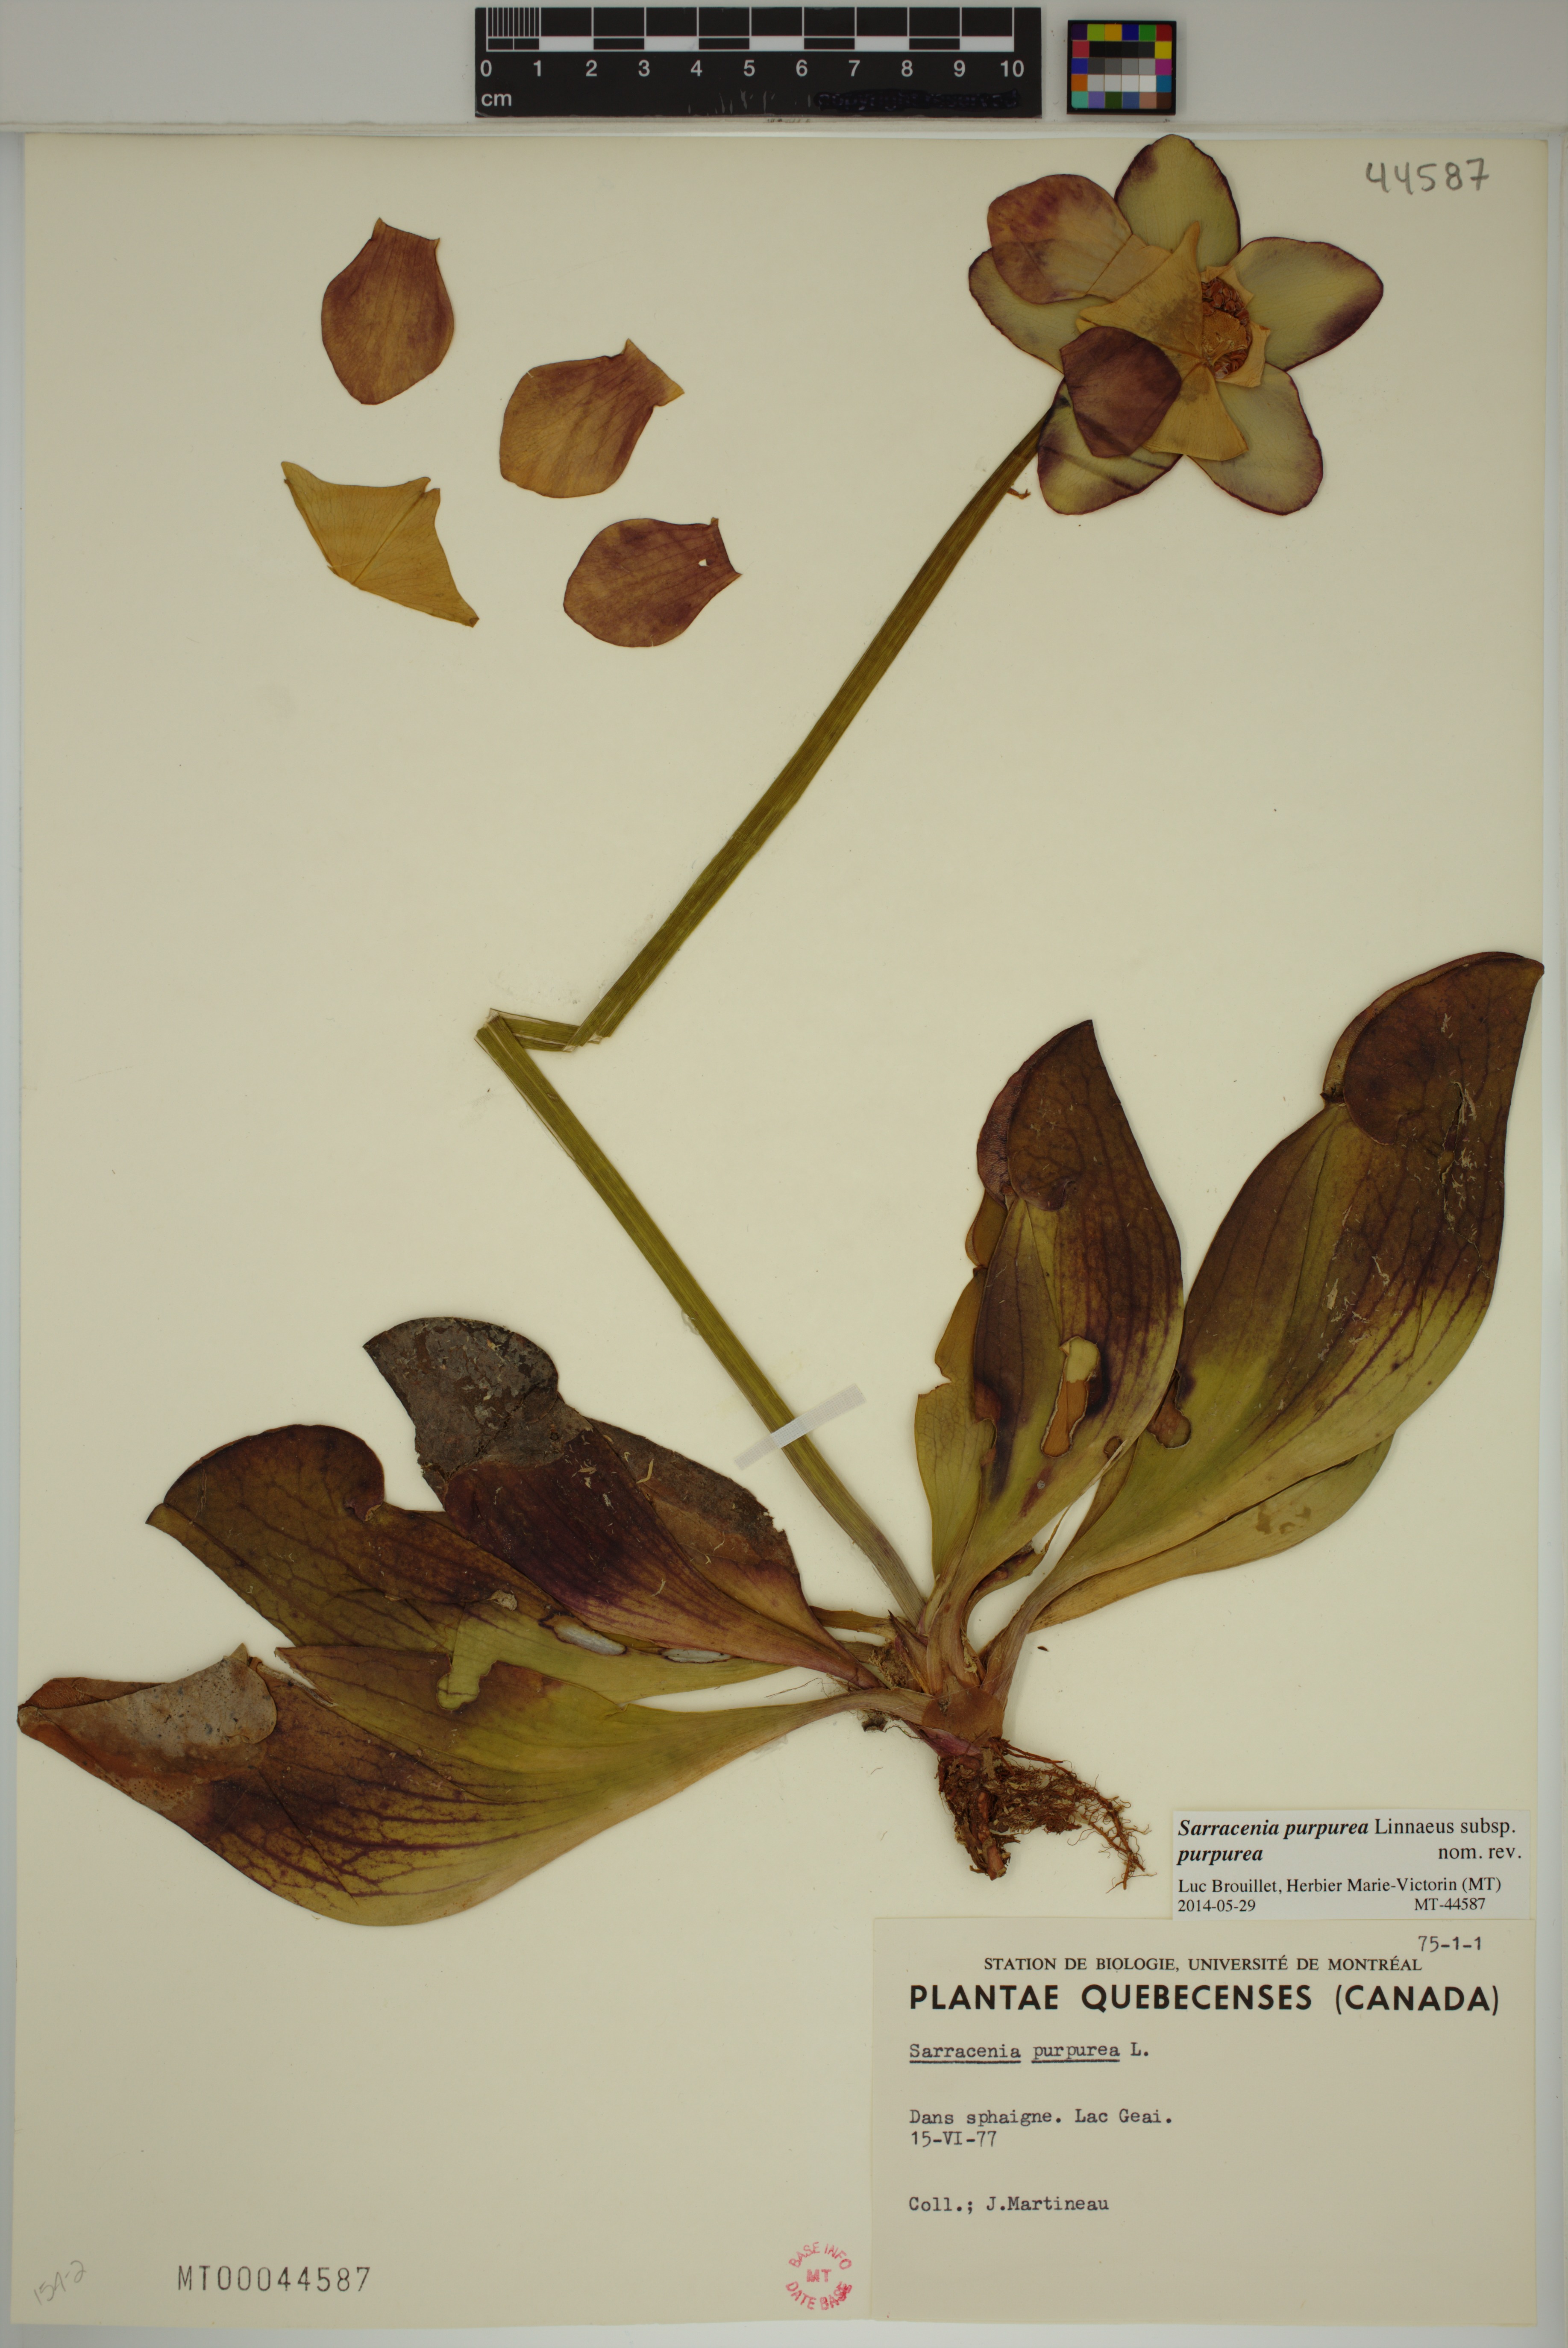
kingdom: Plantae
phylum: Tracheophyta
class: Magnoliopsida
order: Ericales
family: Sarraceniaceae
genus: Sarracenia
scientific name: Sarracenia purpurea
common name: Pitcherplant
